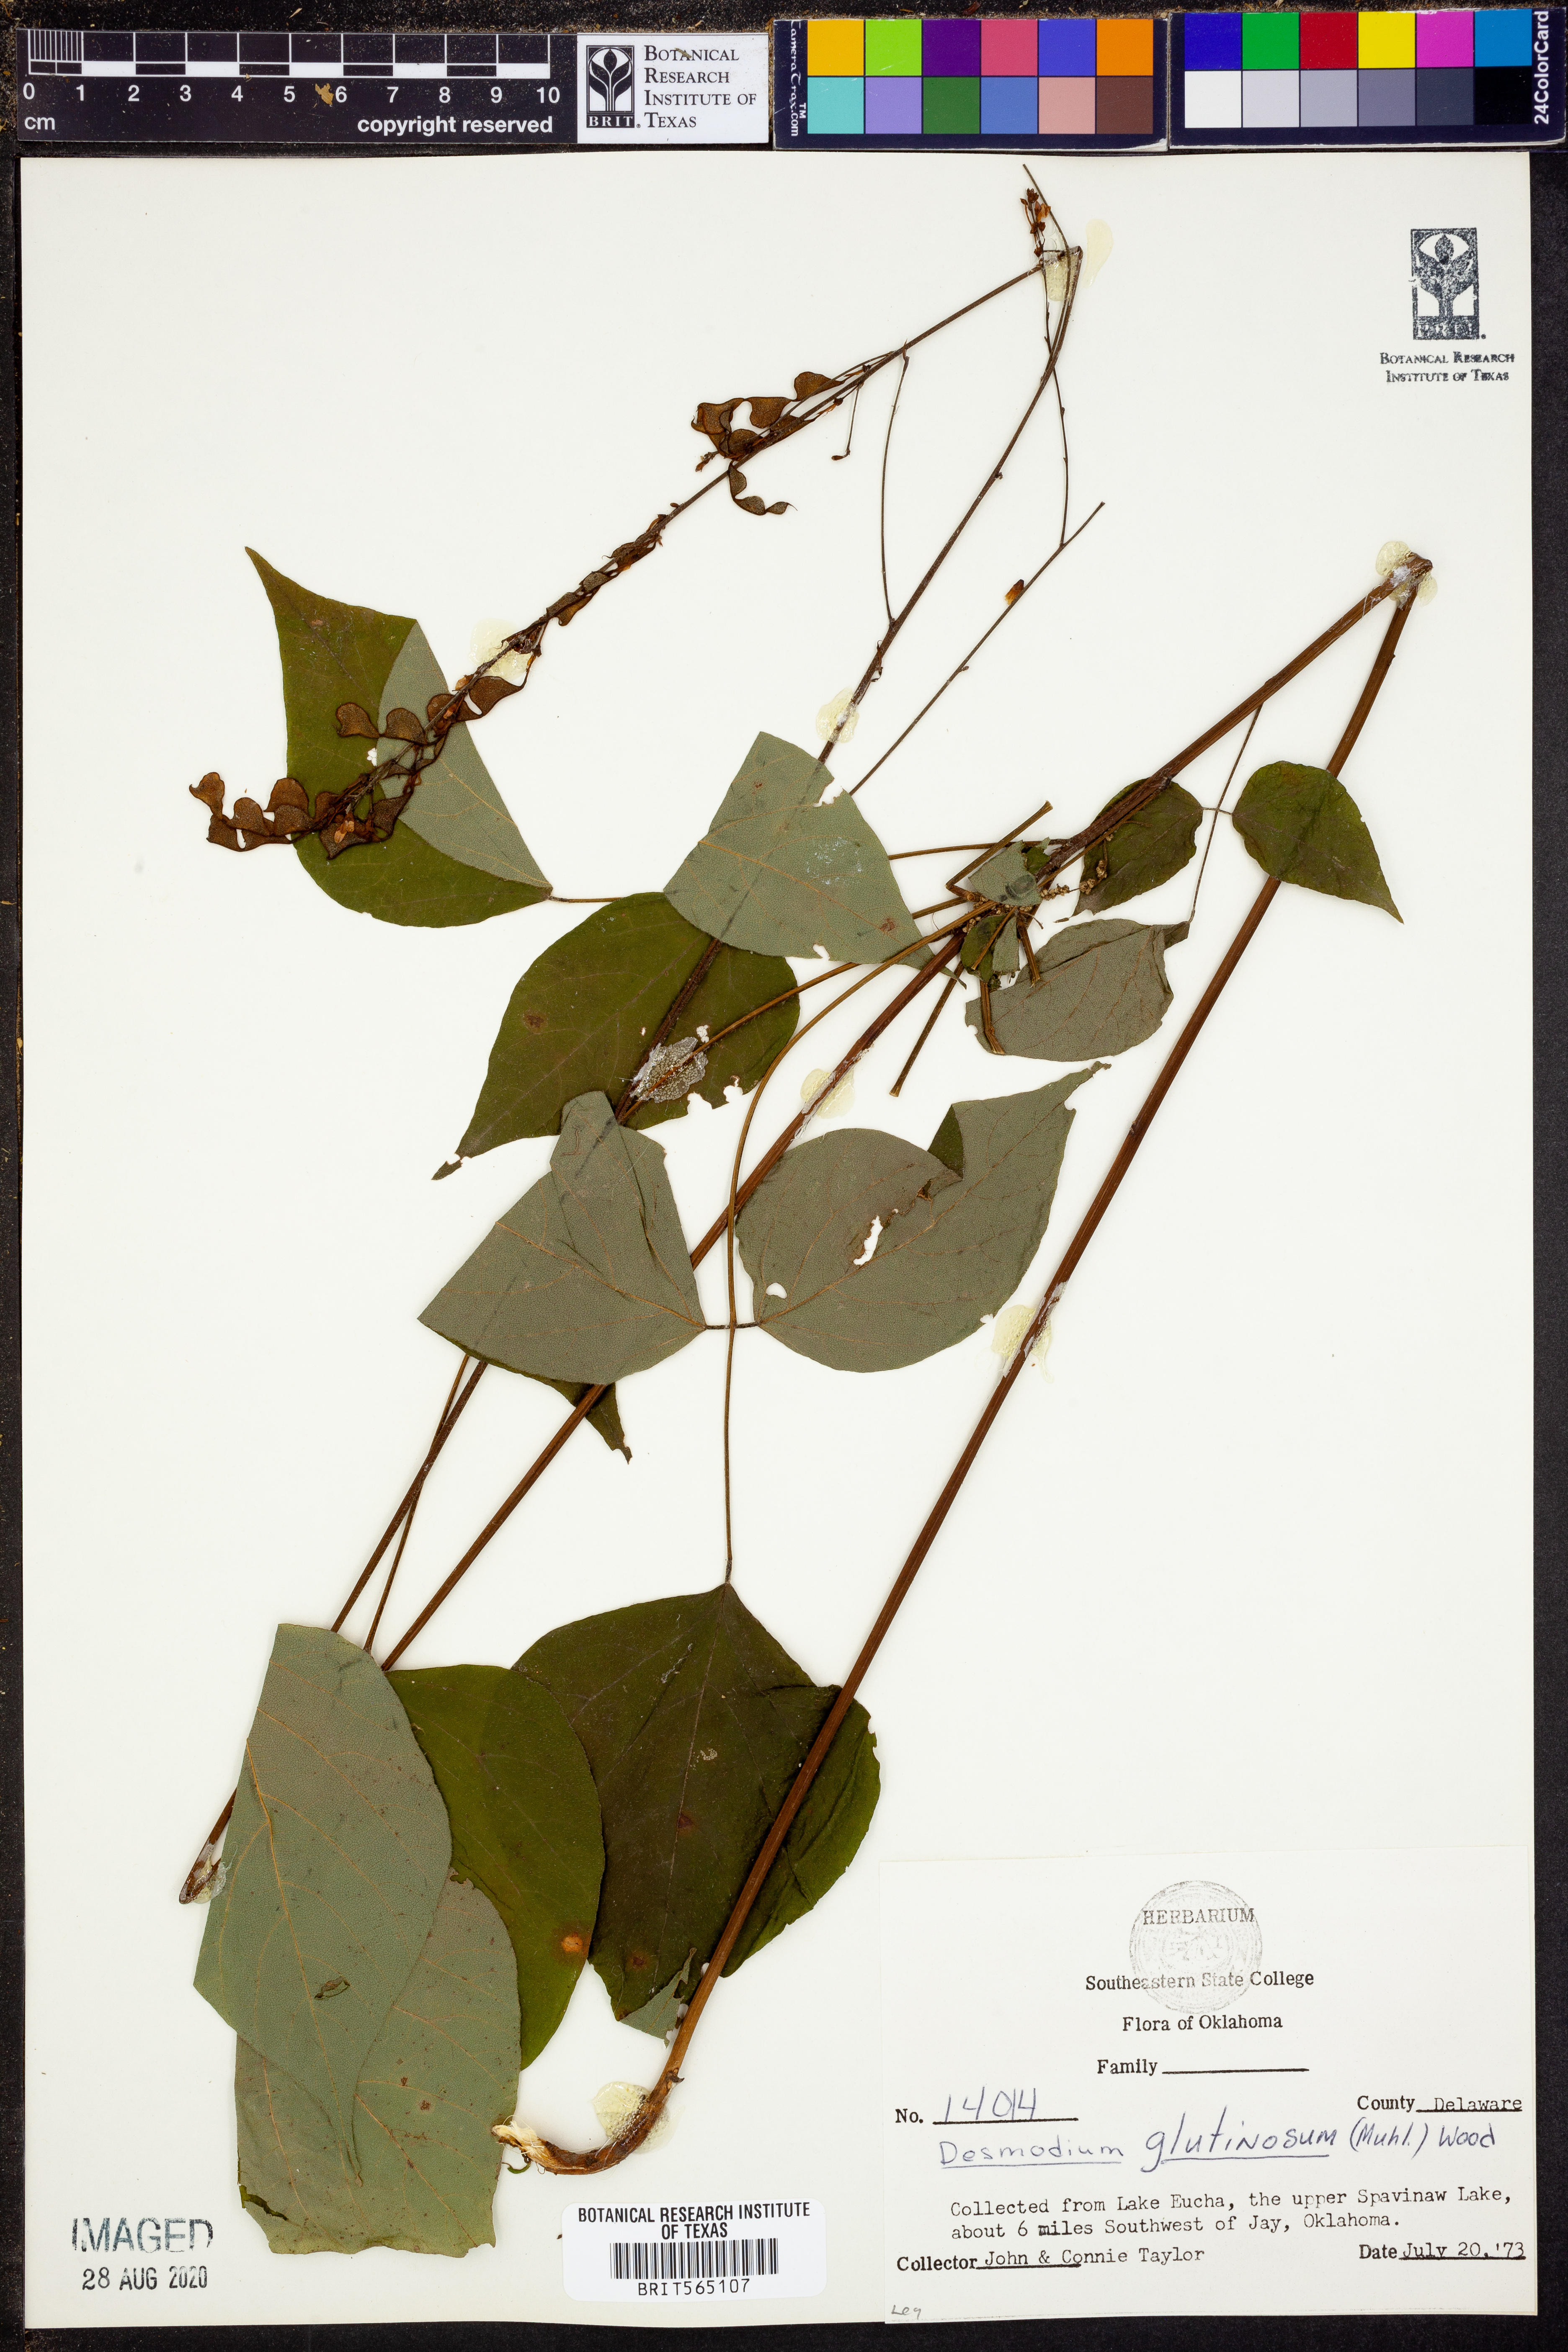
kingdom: Plantae
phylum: Tracheophyta
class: Magnoliopsida
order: Fabales
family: Fabaceae
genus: Hylodesmum
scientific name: Hylodesmum glutinosum
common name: Clustered-leaved tick-trefoil
